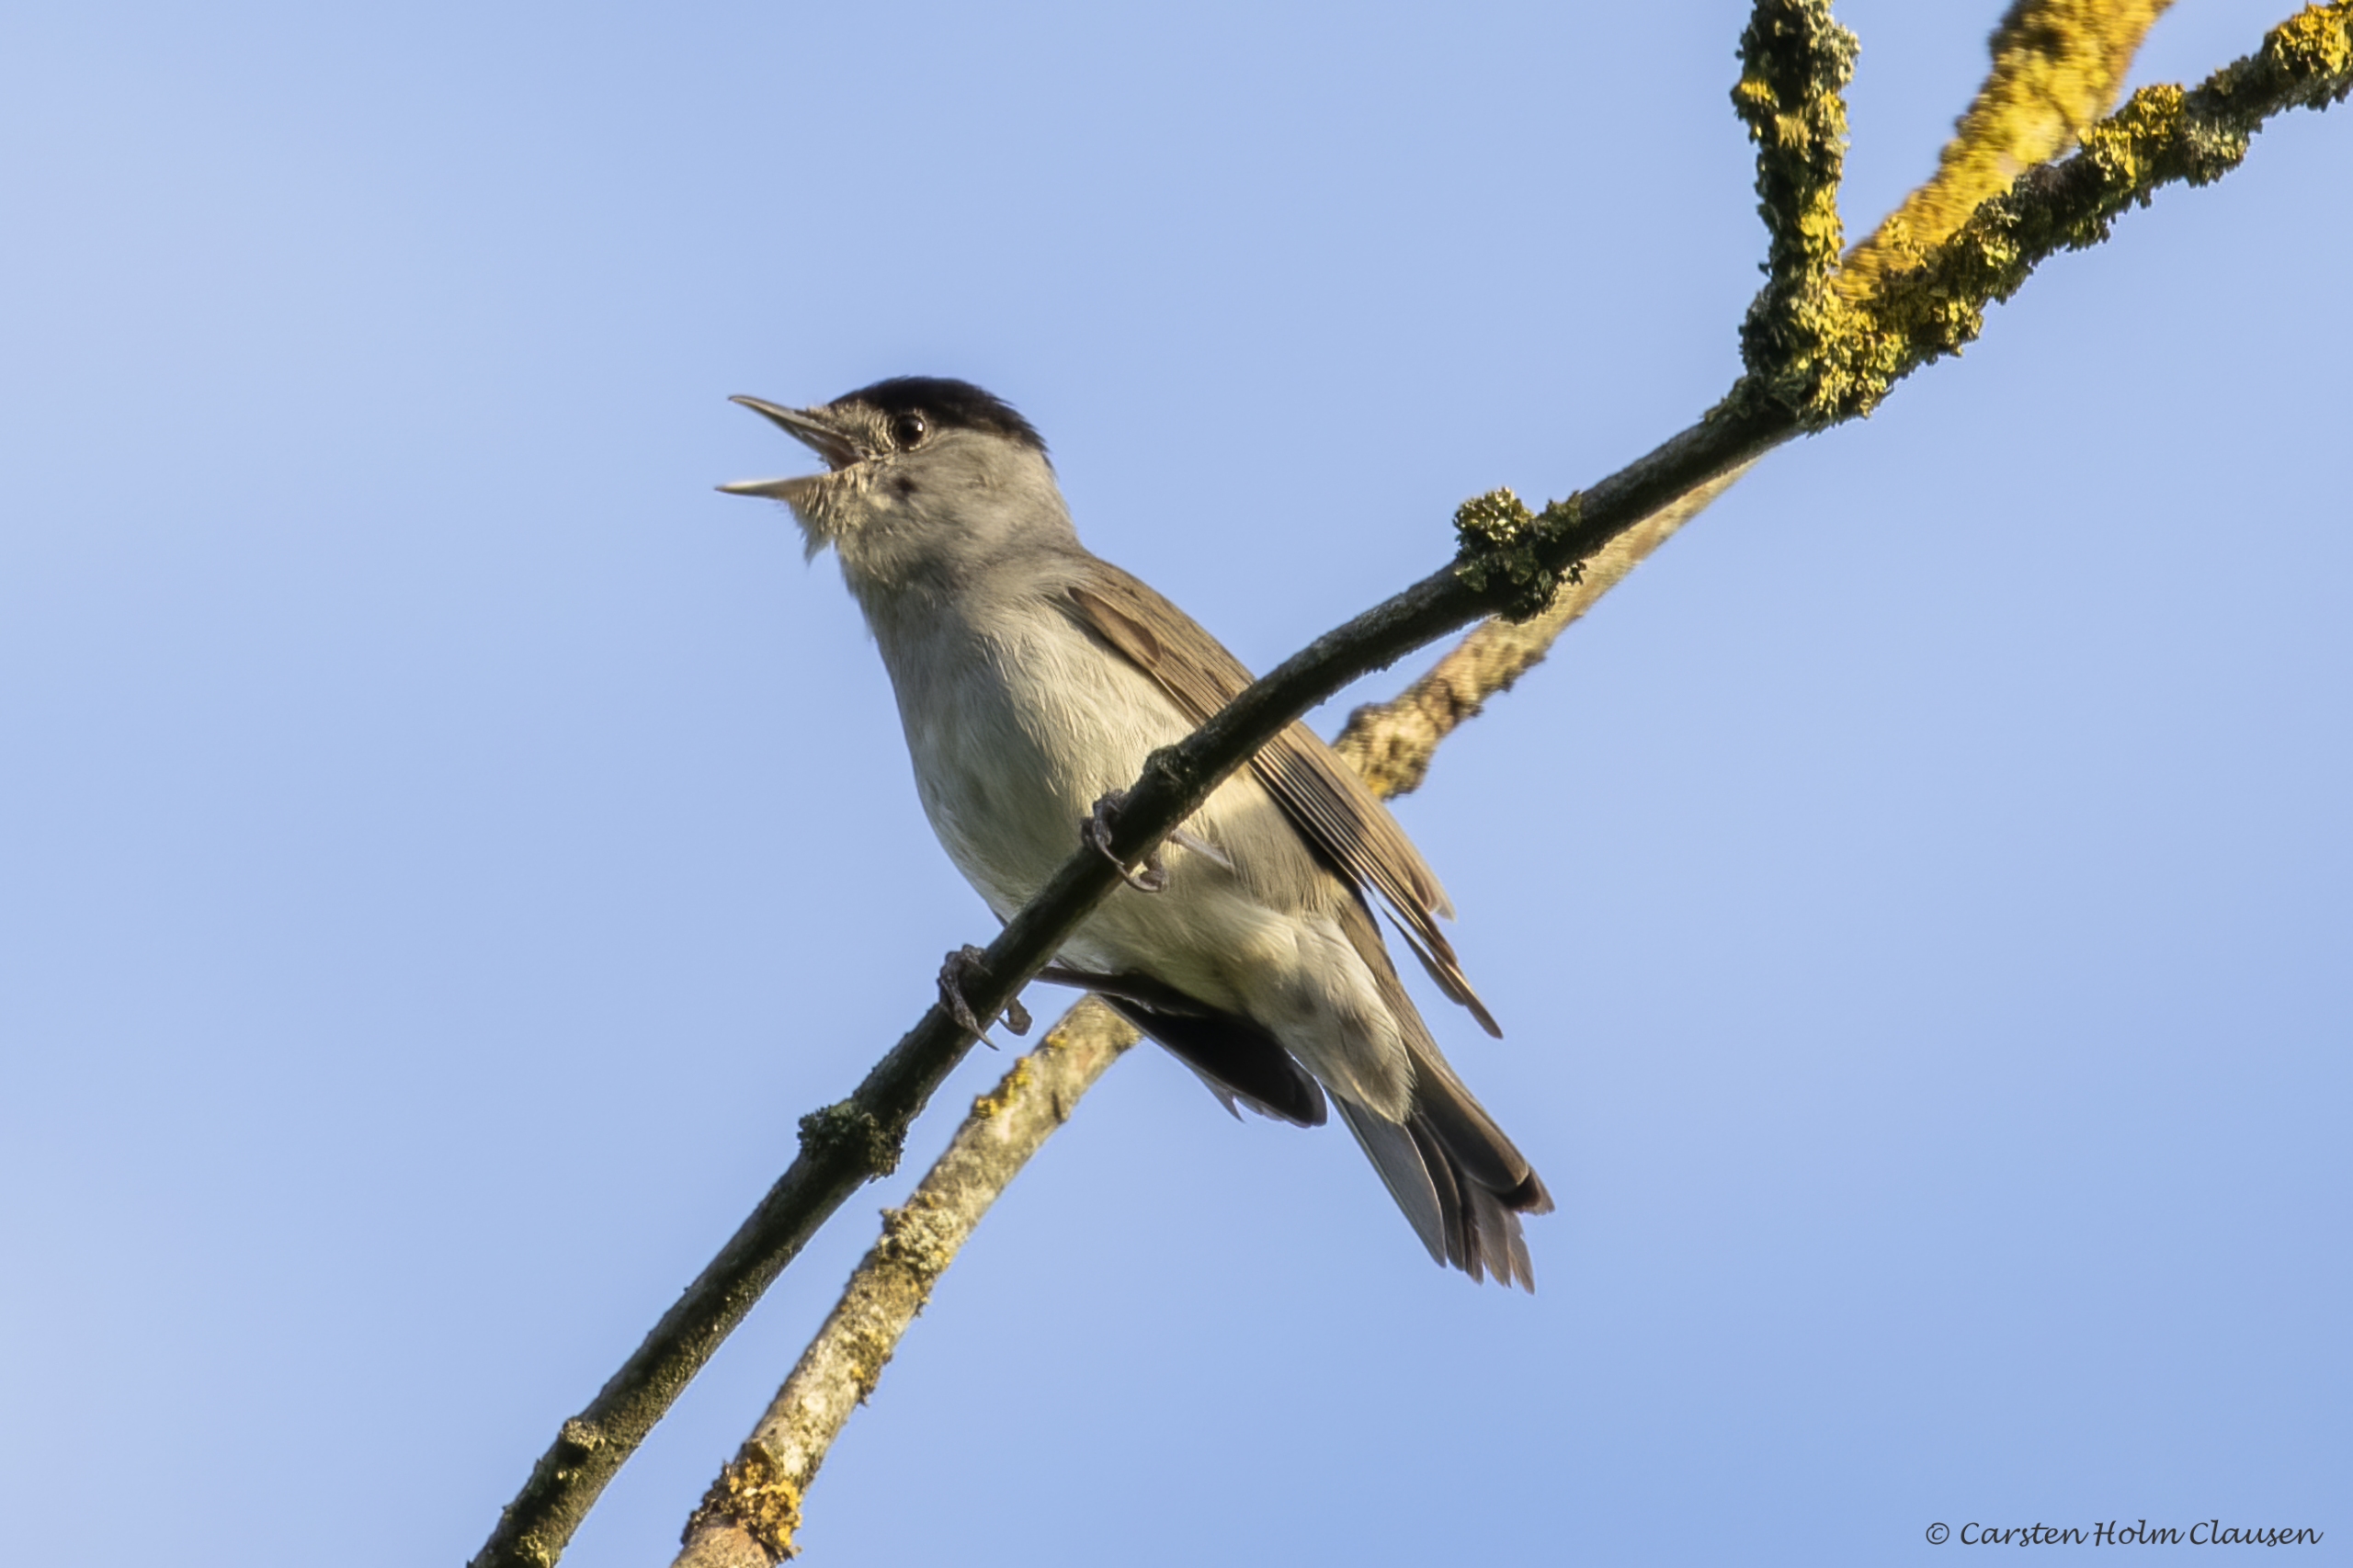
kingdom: Animalia
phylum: Chordata
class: Aves
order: Passeriformes
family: Sylviidae
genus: Sylvia
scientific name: Sylvia atricapilla
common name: Munk
